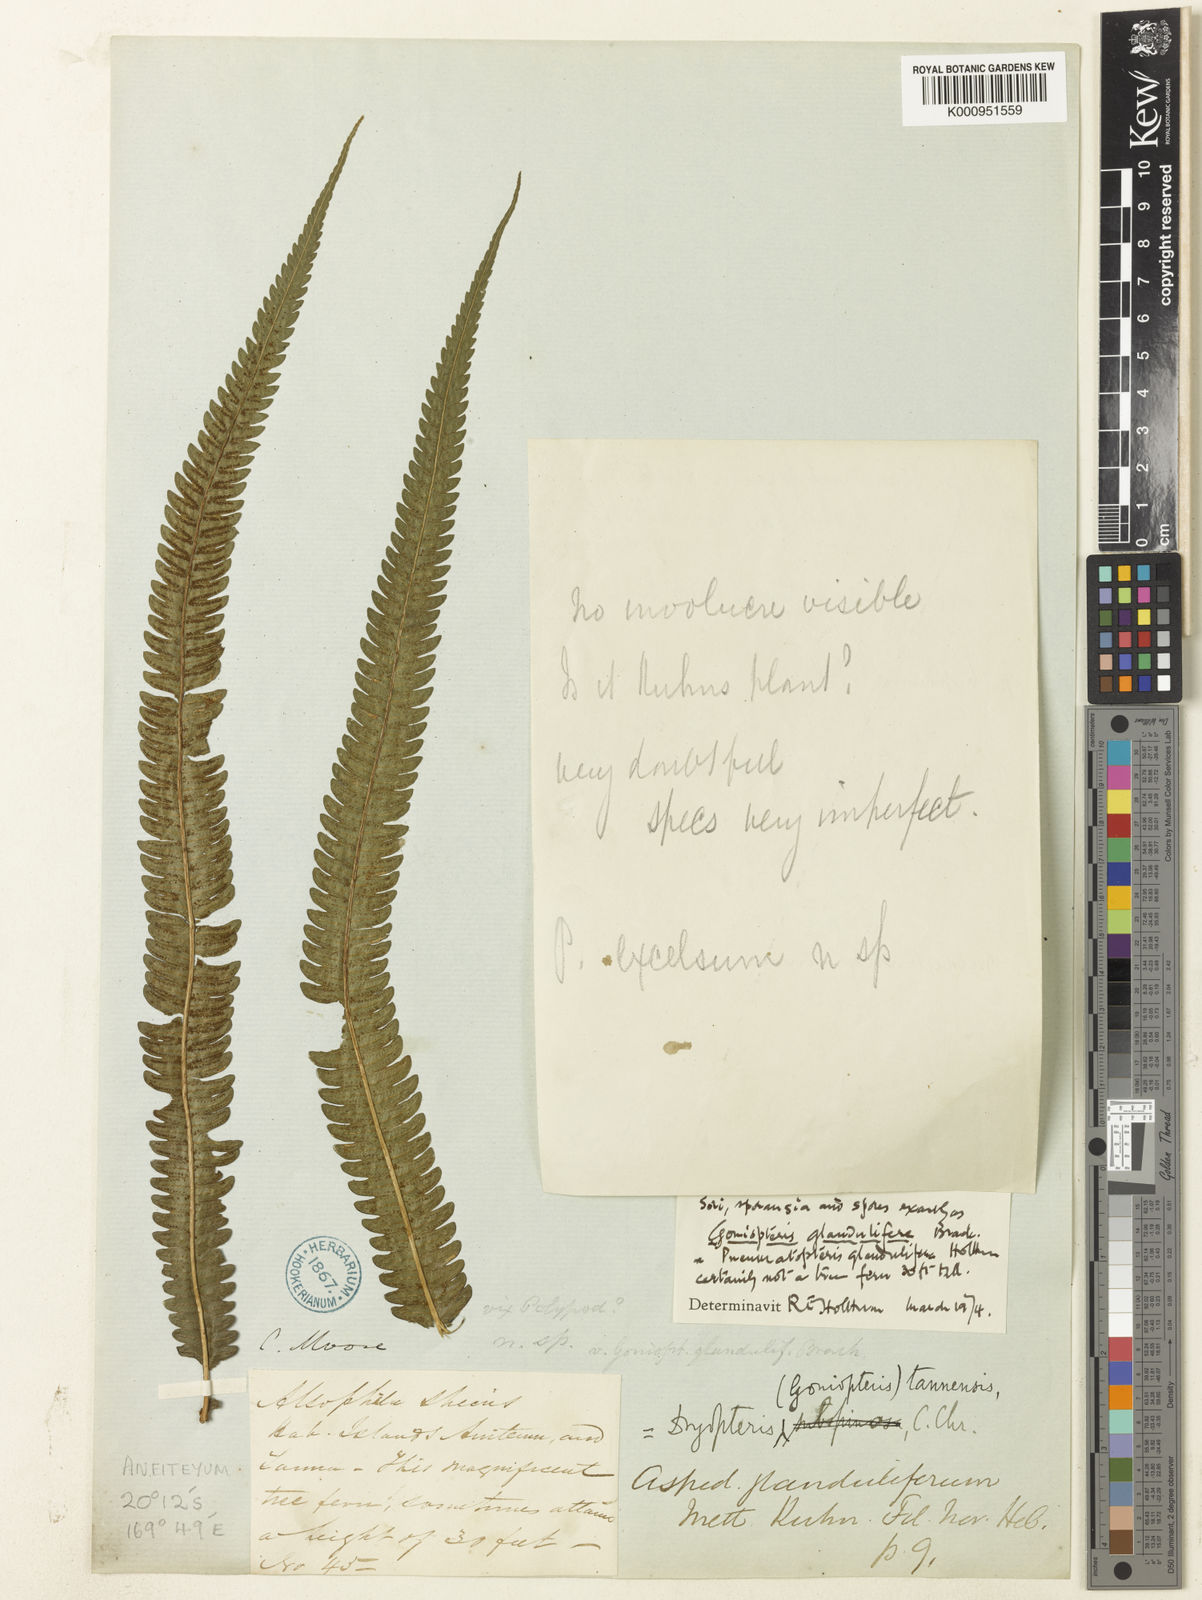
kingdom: Plantae
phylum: Tracheophyta
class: Polypodiopsida
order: Polypodiales
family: Thelypteridaceae
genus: Pneumatopteris
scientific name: Pneumatopteris glandulifera
